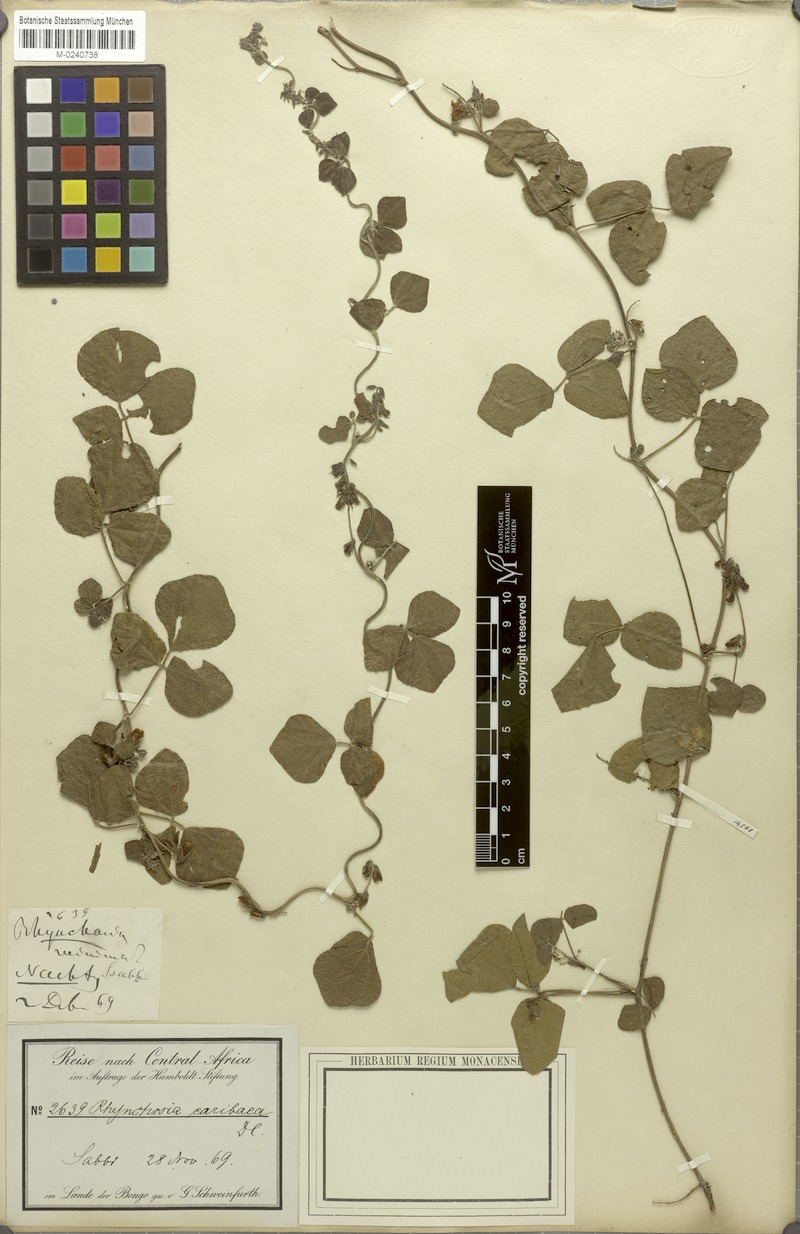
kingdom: Plantae
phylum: Tracheophyta
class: Magnoliopsida
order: Fabales
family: Fabaceae
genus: Rhynchosia
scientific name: Rhynchosia caribaea
